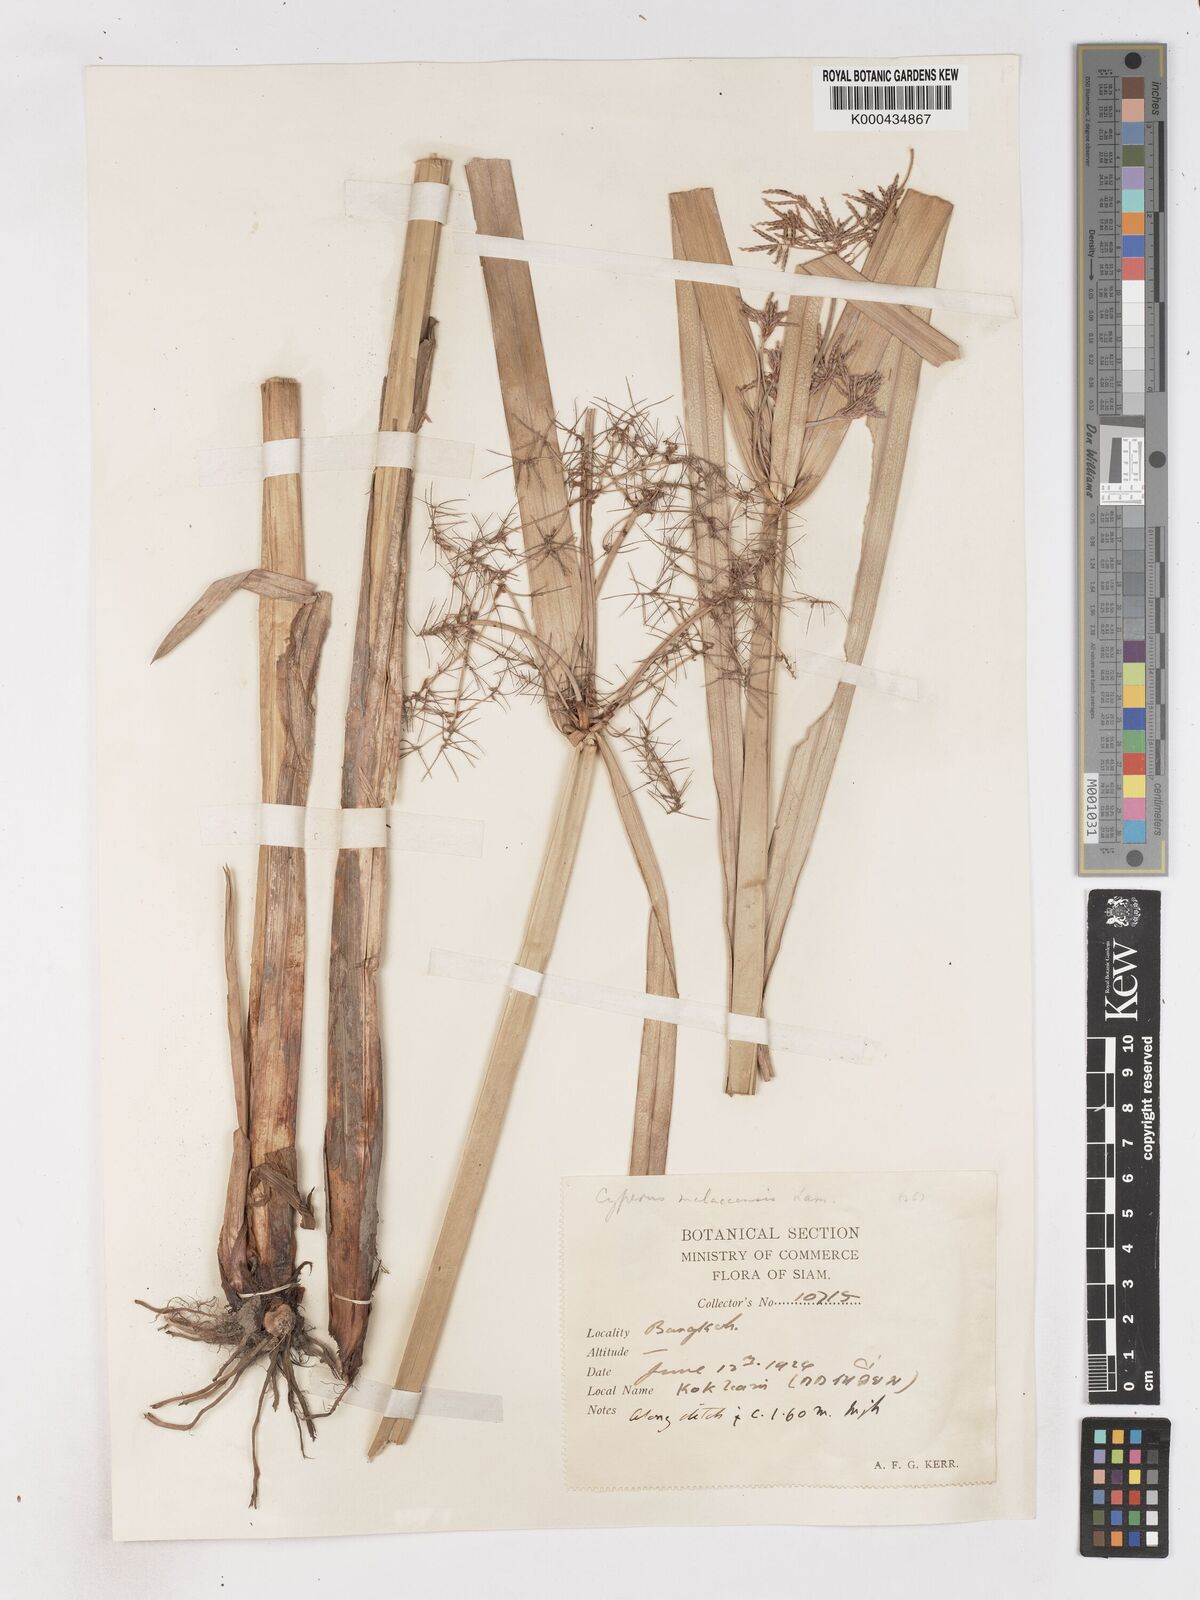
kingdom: Plantae
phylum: Tracheophyta
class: Liliopsida
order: Poales
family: Cyperaceae
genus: Cyperus
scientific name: Cyperus malaccensis
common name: Shichito matgrass
